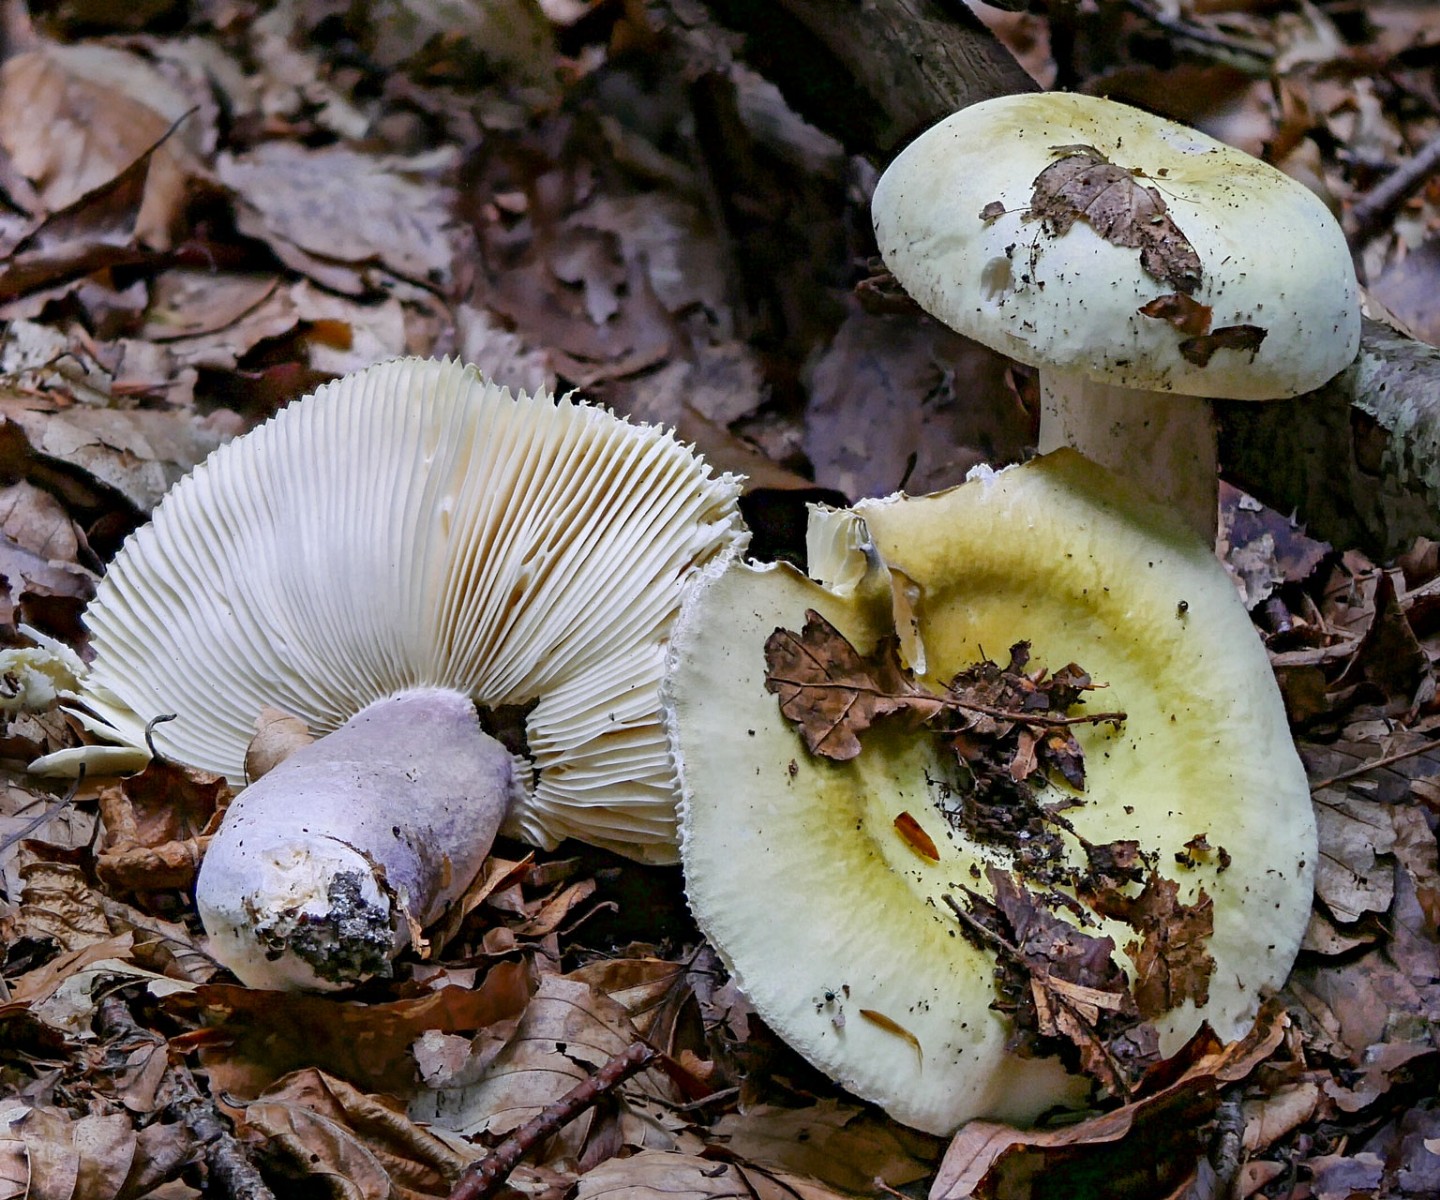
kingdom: Fungi
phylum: Basidiomycota
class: Agaricomycetes
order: Russulales
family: Russulaceae
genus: Russula
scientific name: Russula violeipes
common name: ferskengul skørhat
